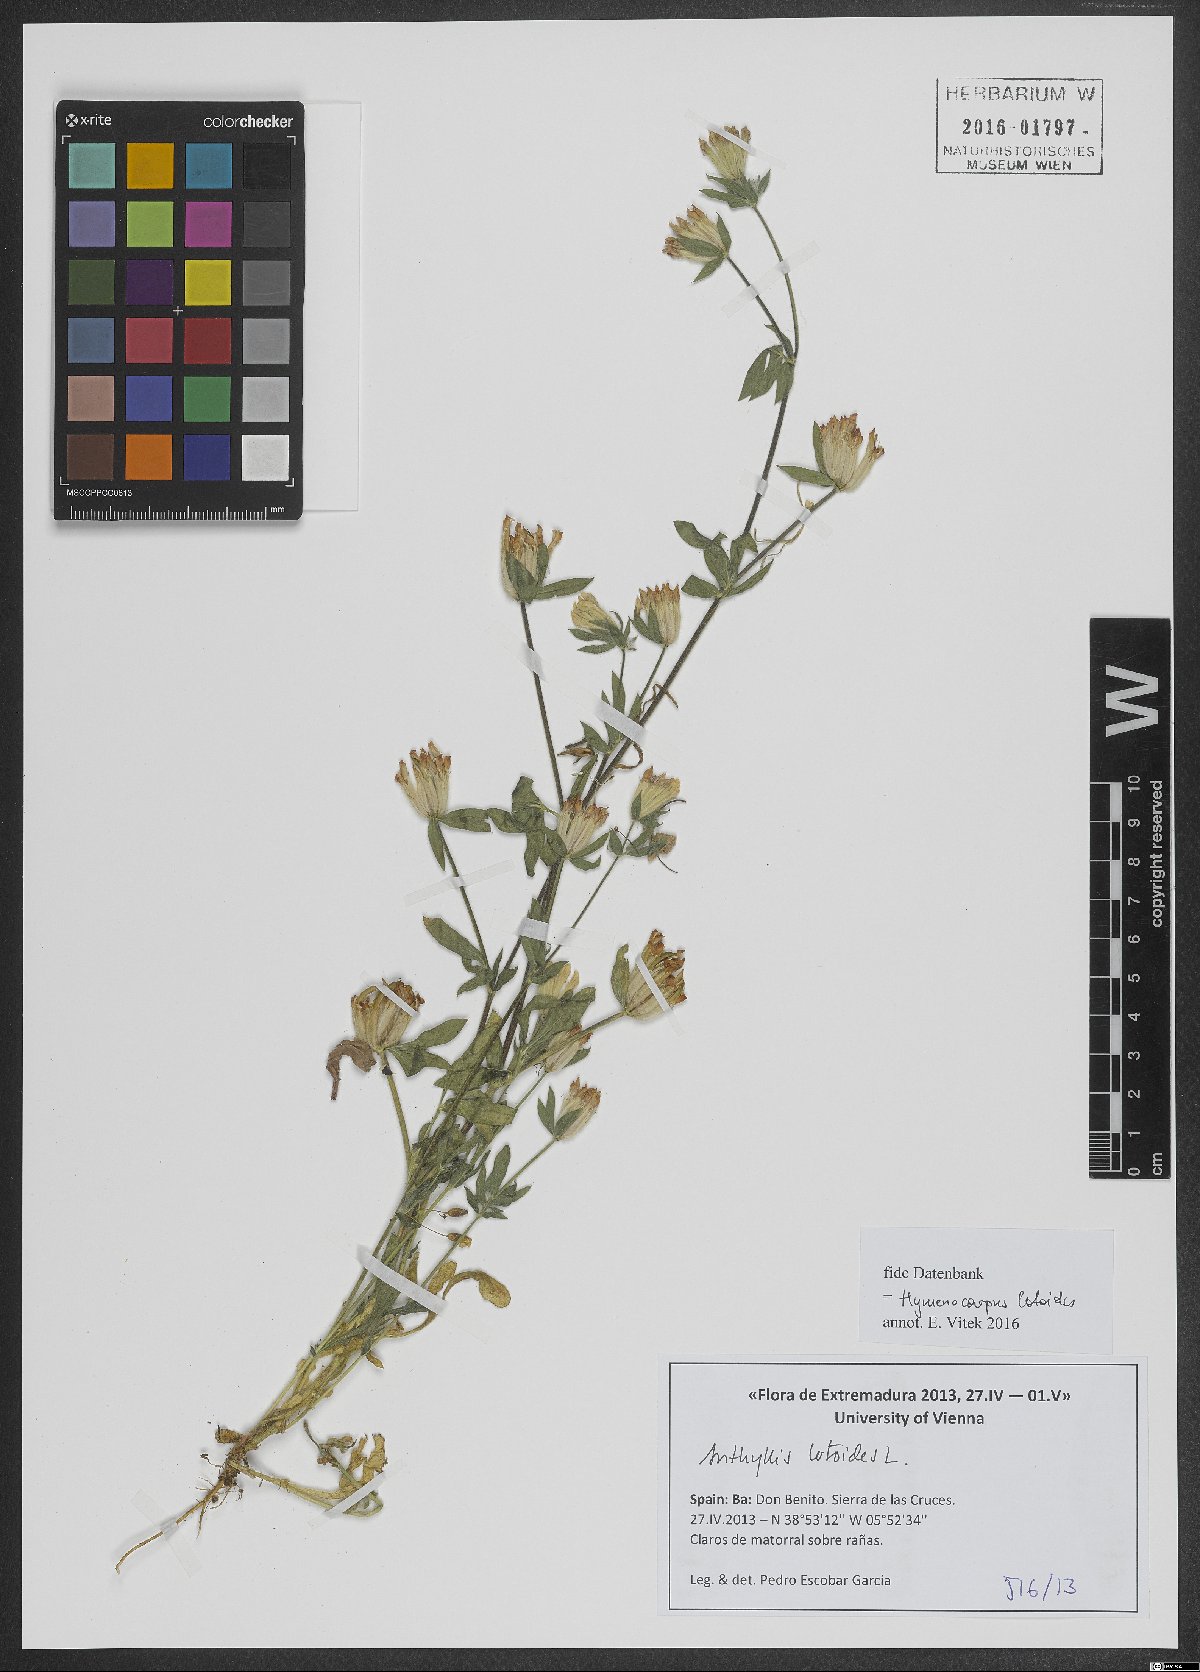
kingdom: Plantae
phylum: Tracheophyta
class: Magnoliopsida
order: Fabales
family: Fabaceae
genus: Anthyllis
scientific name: Anthyllis lotoides
